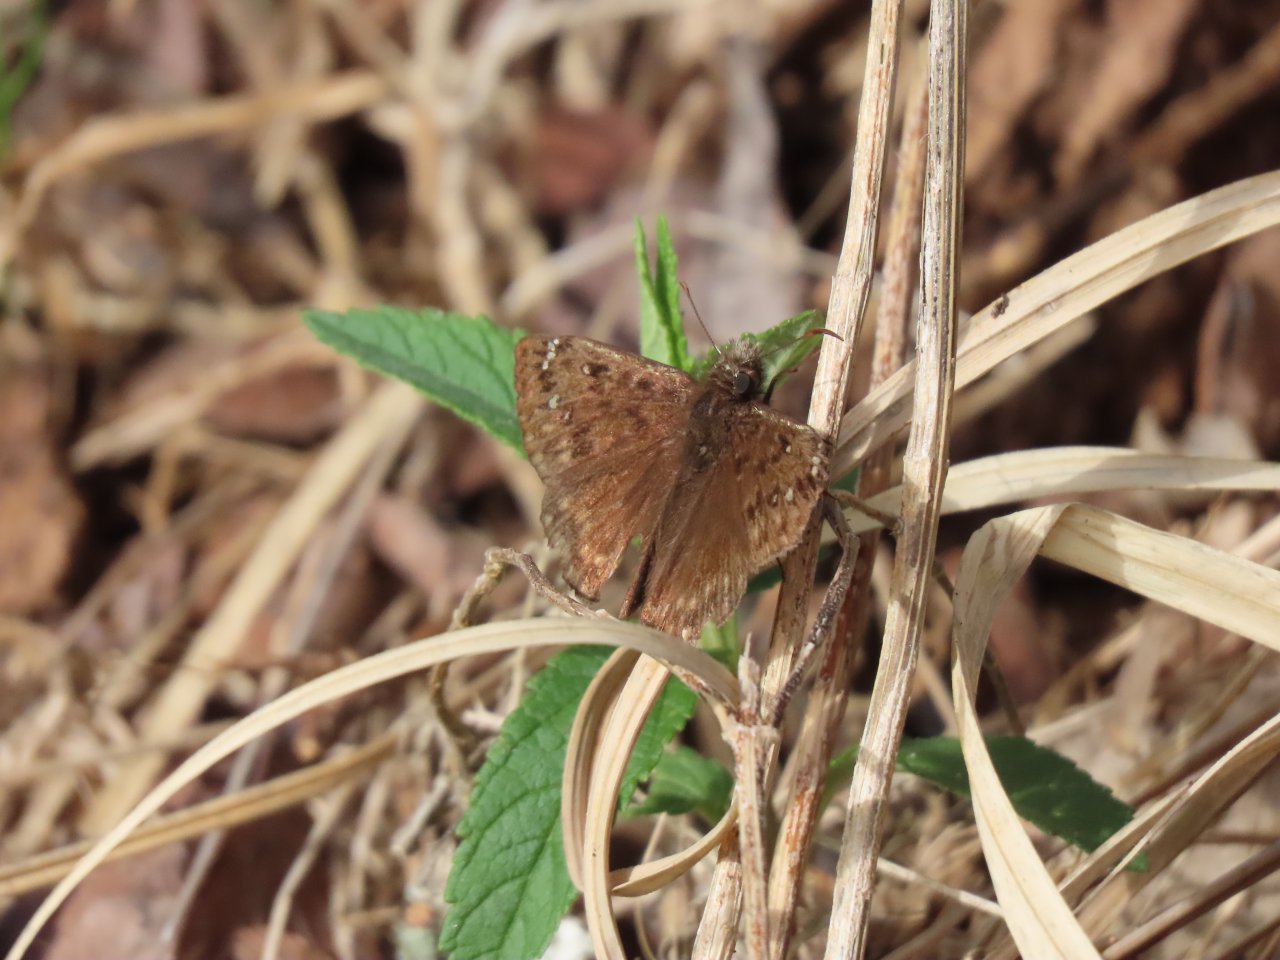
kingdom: Animalia
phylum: Arthropoda
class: Insecta
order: Lepidoptera
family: Hesperiidae
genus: Gesta
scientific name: Gesta
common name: Juvenal's Duskywing
